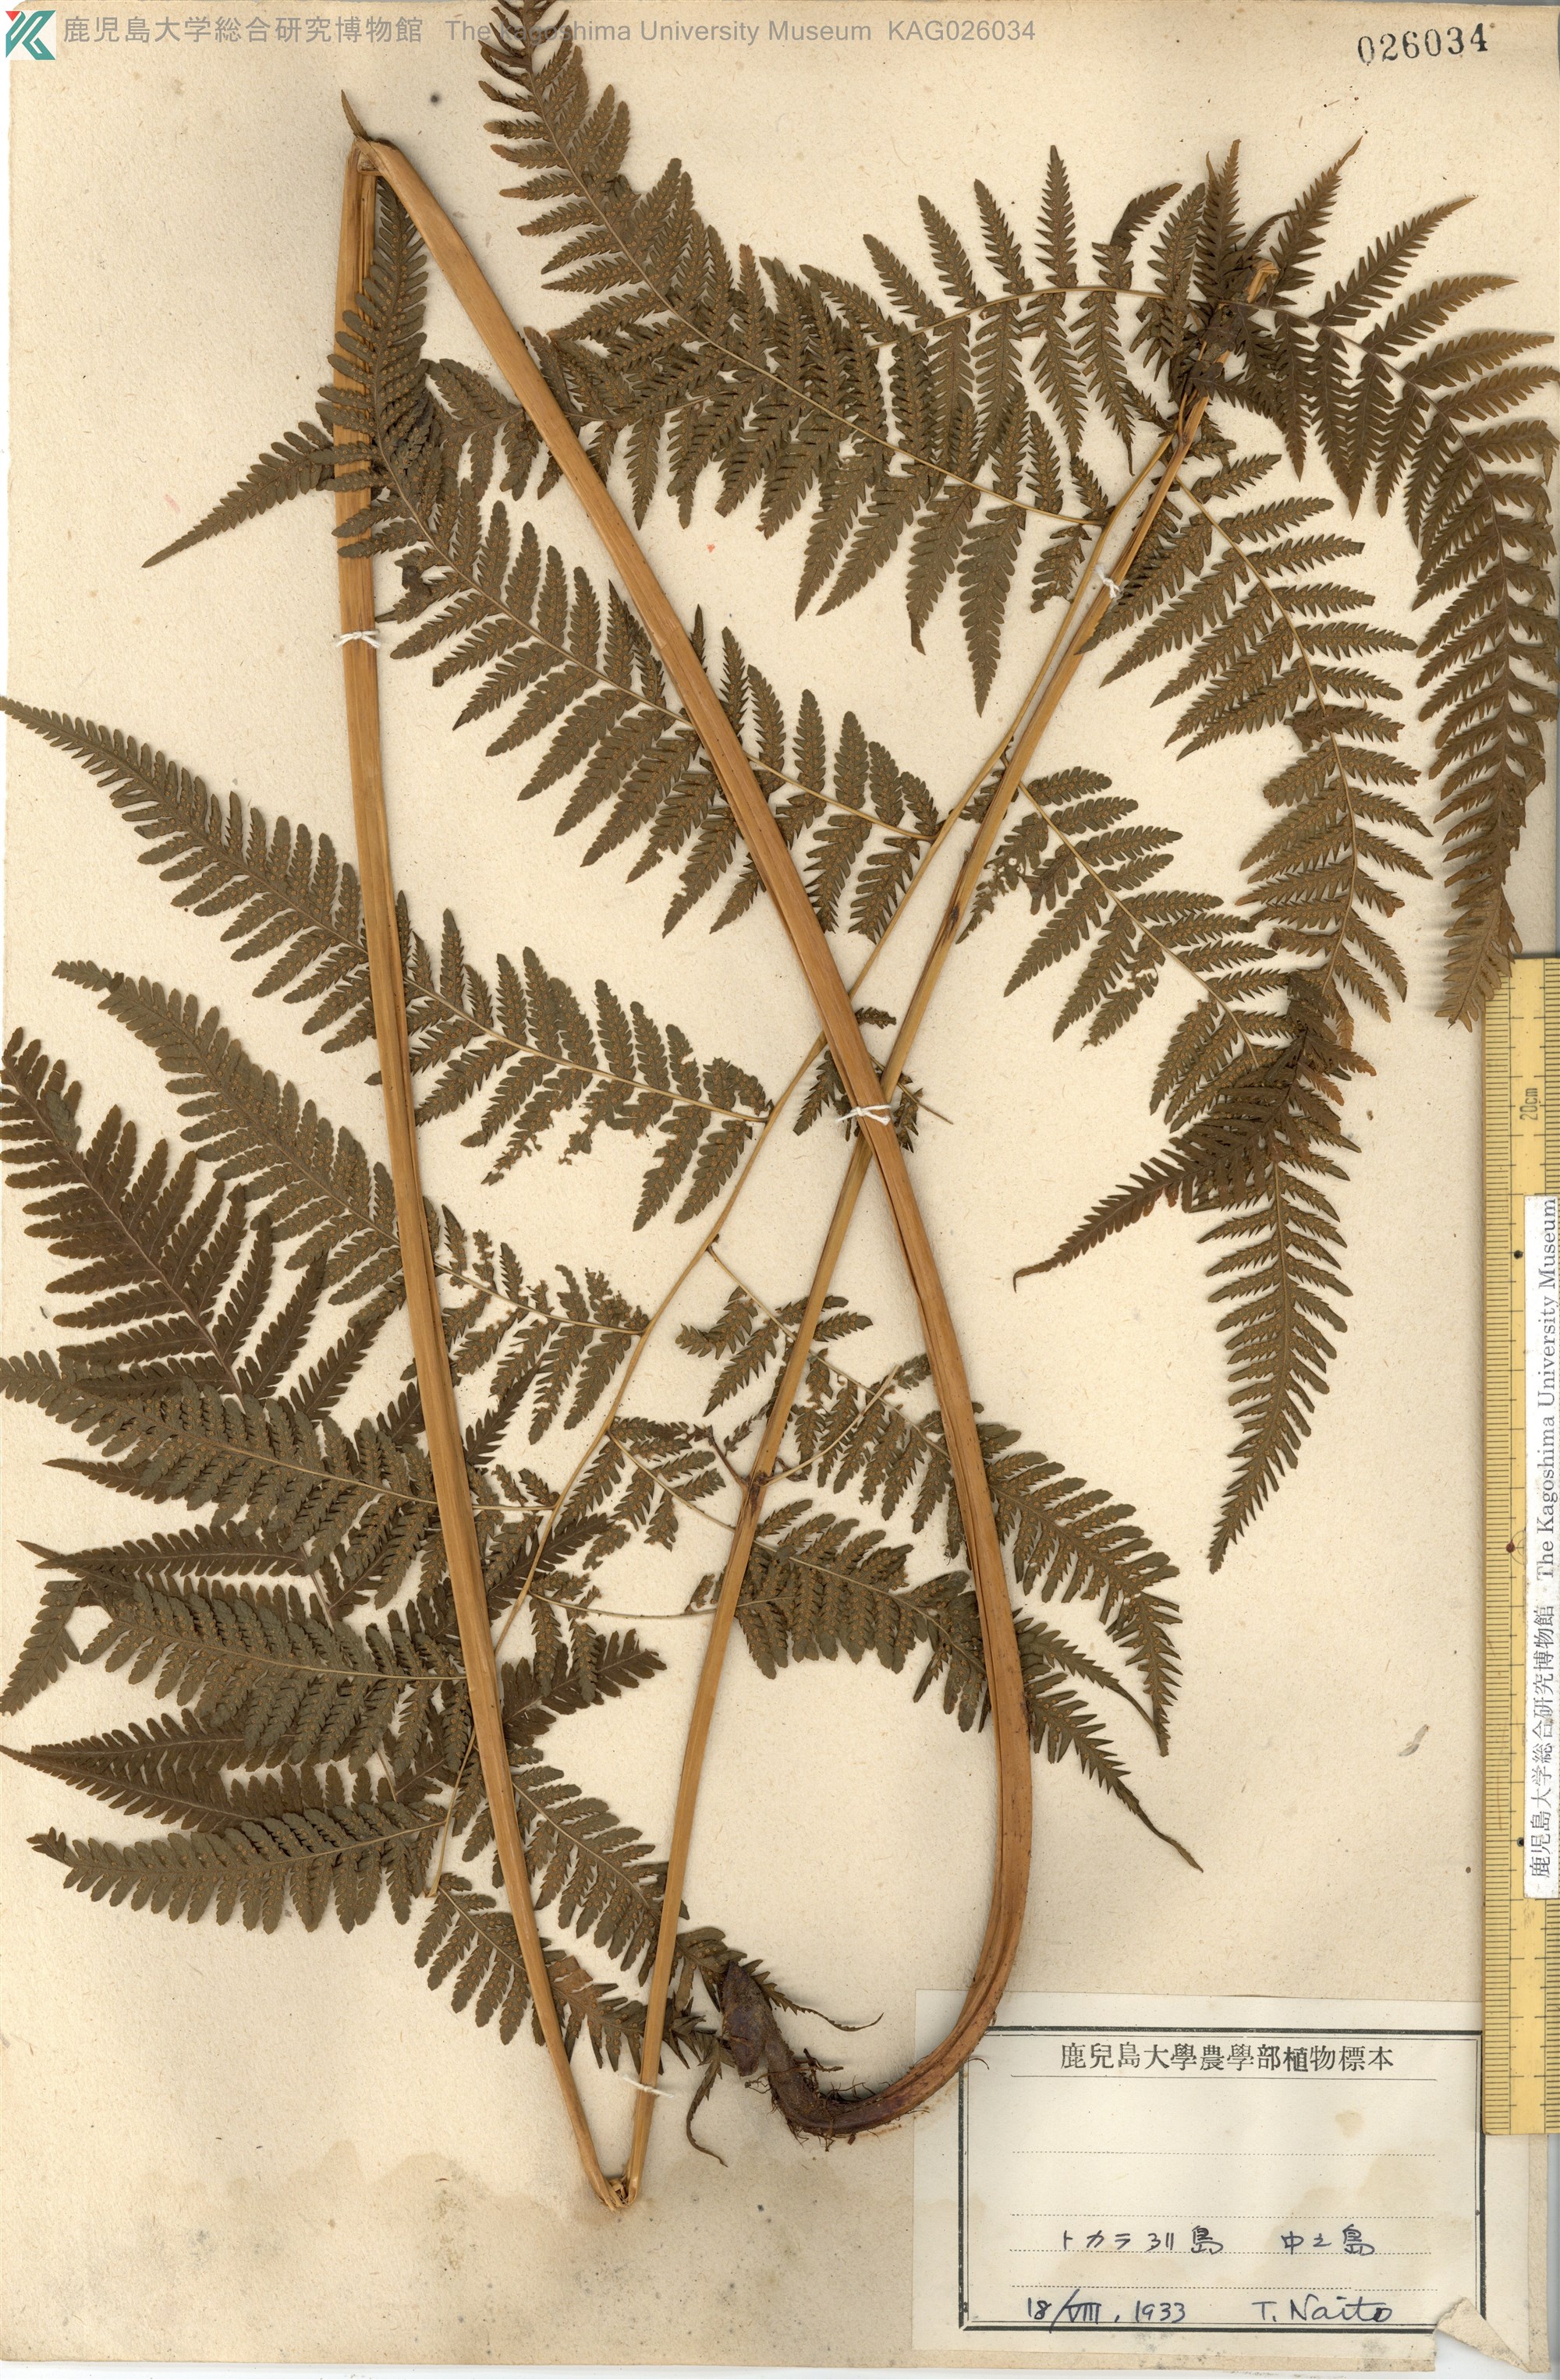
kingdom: Plantae
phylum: Tracheophyta
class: Polypodiopsida
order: Polypodiales
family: Thelypteridaceae
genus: Macrothelypteris
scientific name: Macrothelypteris oligophlebia
